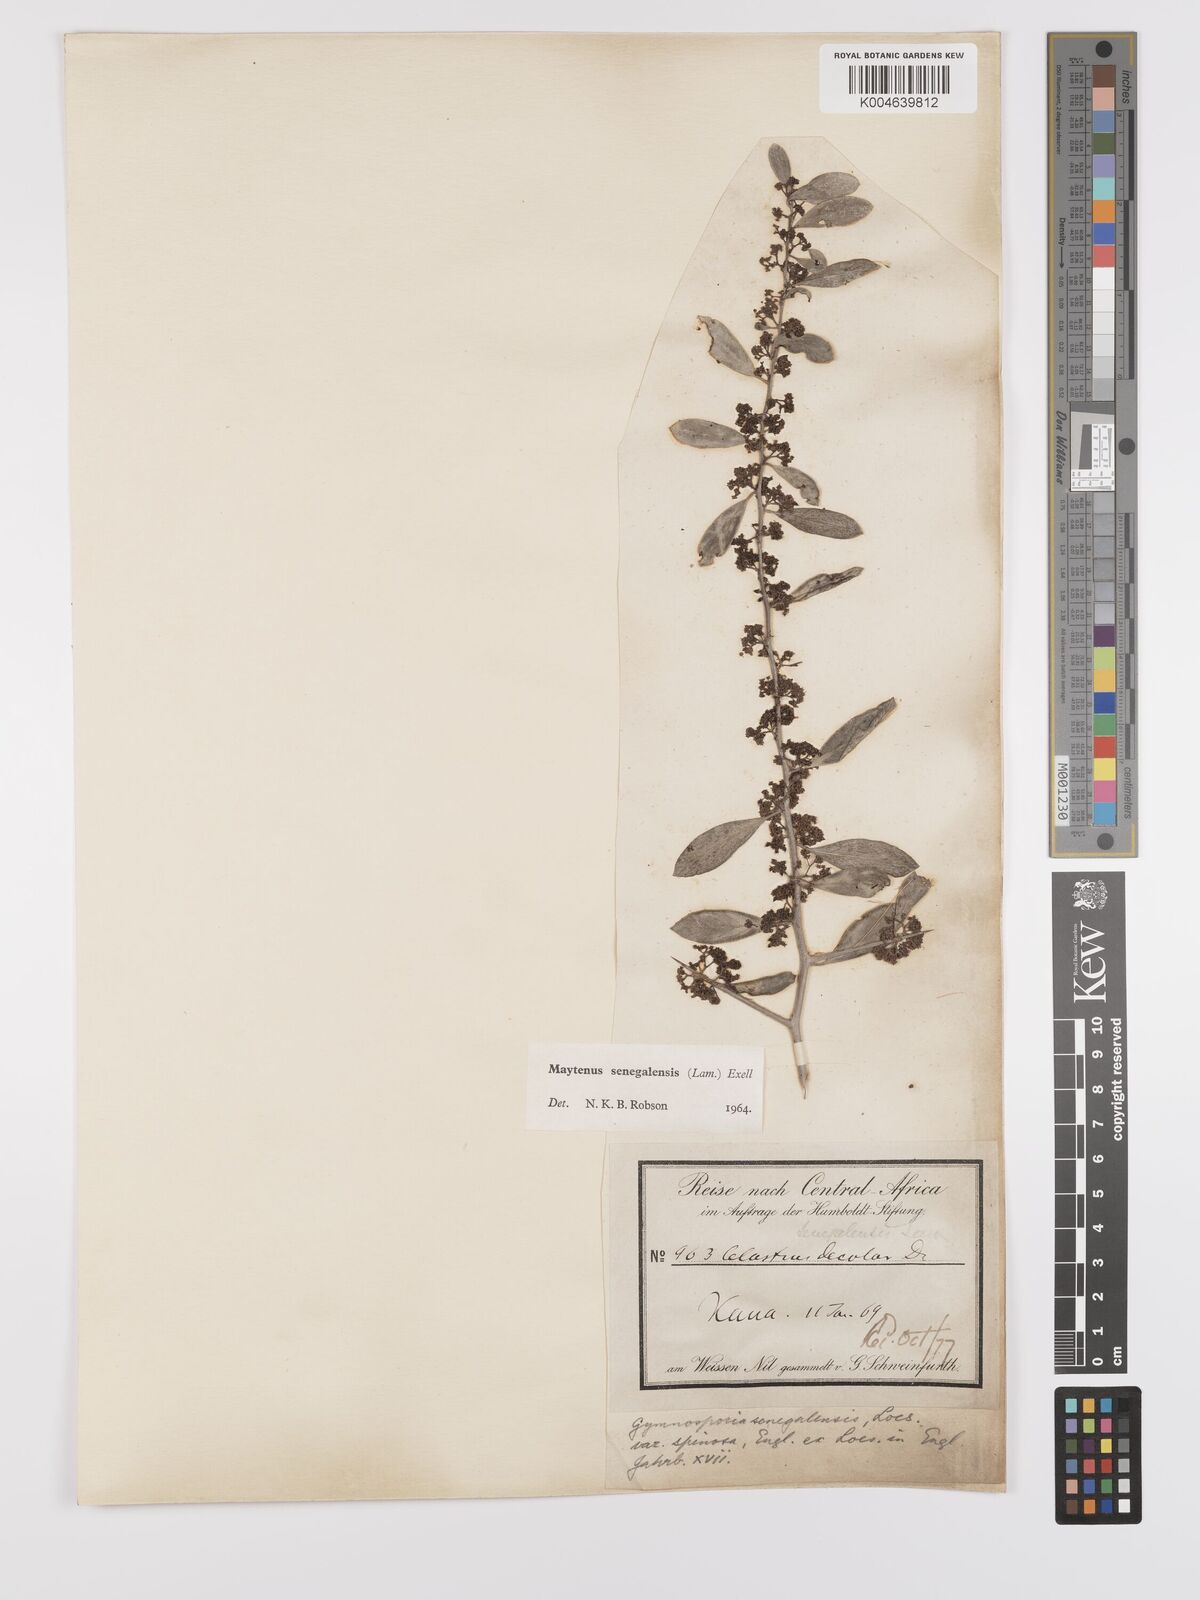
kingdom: Plantae
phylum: Tracheophyta
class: Magnoliopsida
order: Celastrales
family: Celastraceae
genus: Gymnosporia
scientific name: Gymnosporia senegalensis
